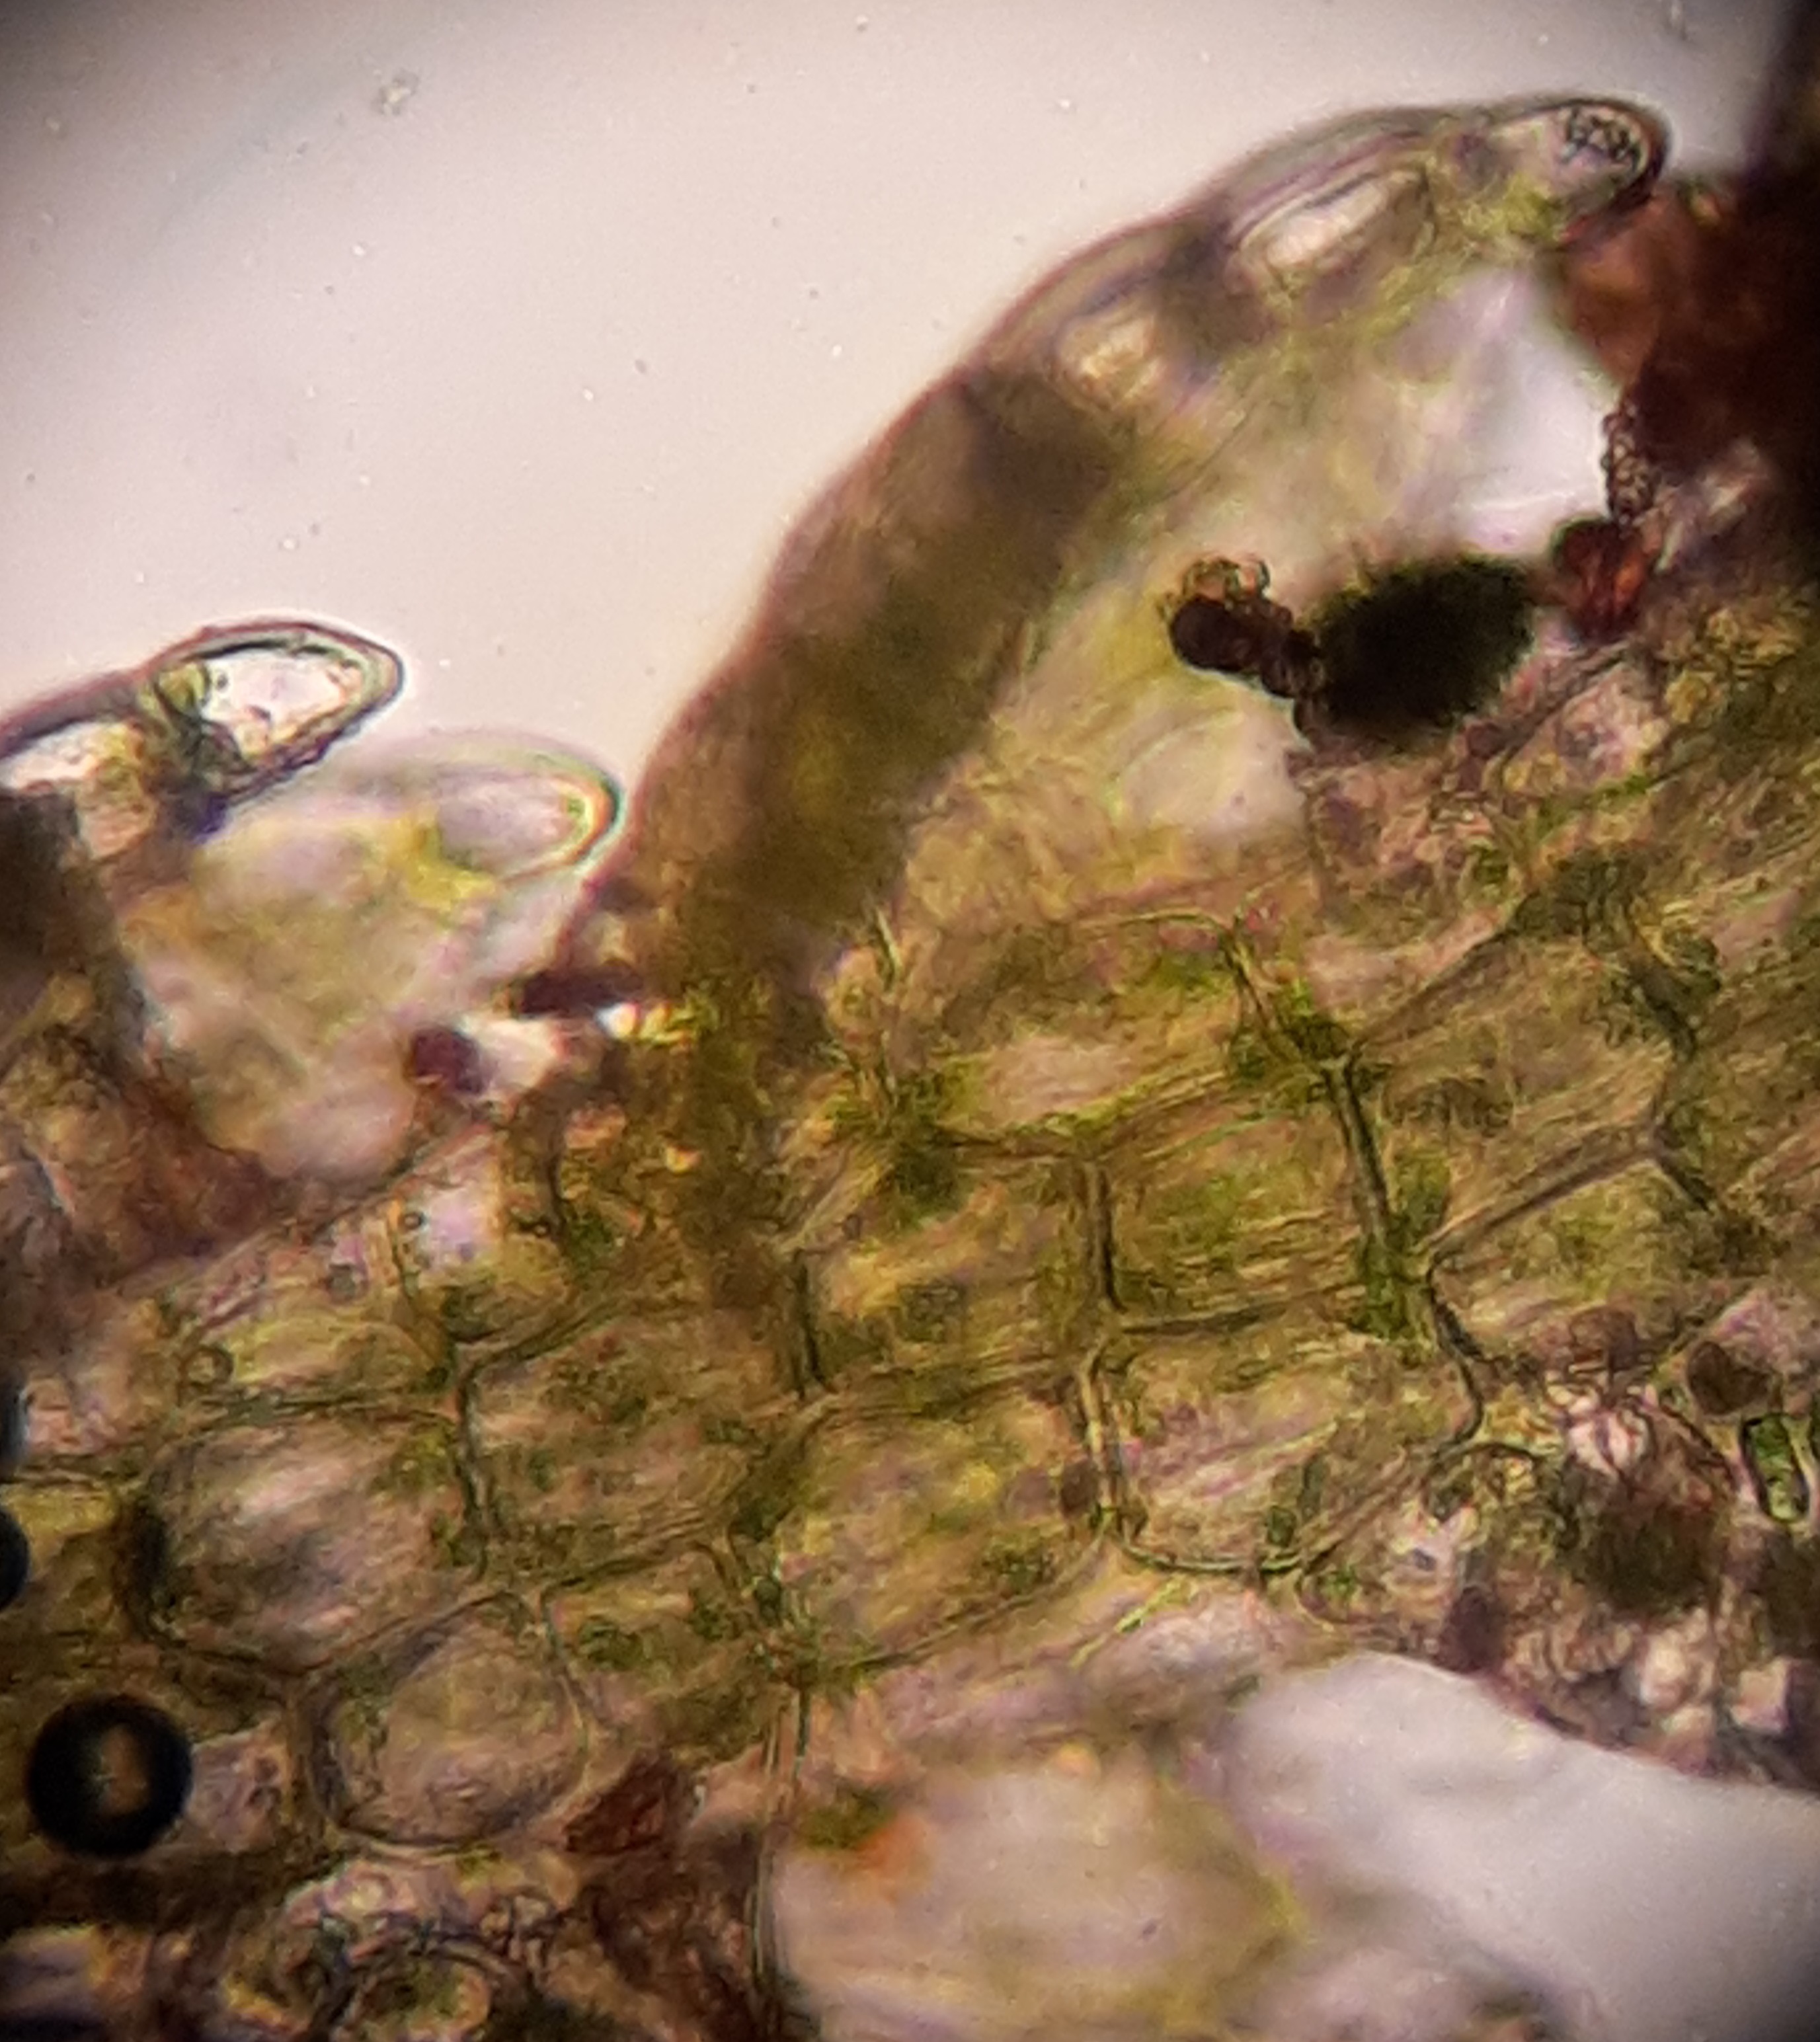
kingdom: Plantae
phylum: Marchantiophyta
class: Jungermanniopsida
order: Jungermanniales
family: Cephaloziaceae
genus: Fuscocephaloziopsis
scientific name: Fuscocephaloziopsis macrostachya
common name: Mose-kantbæger
